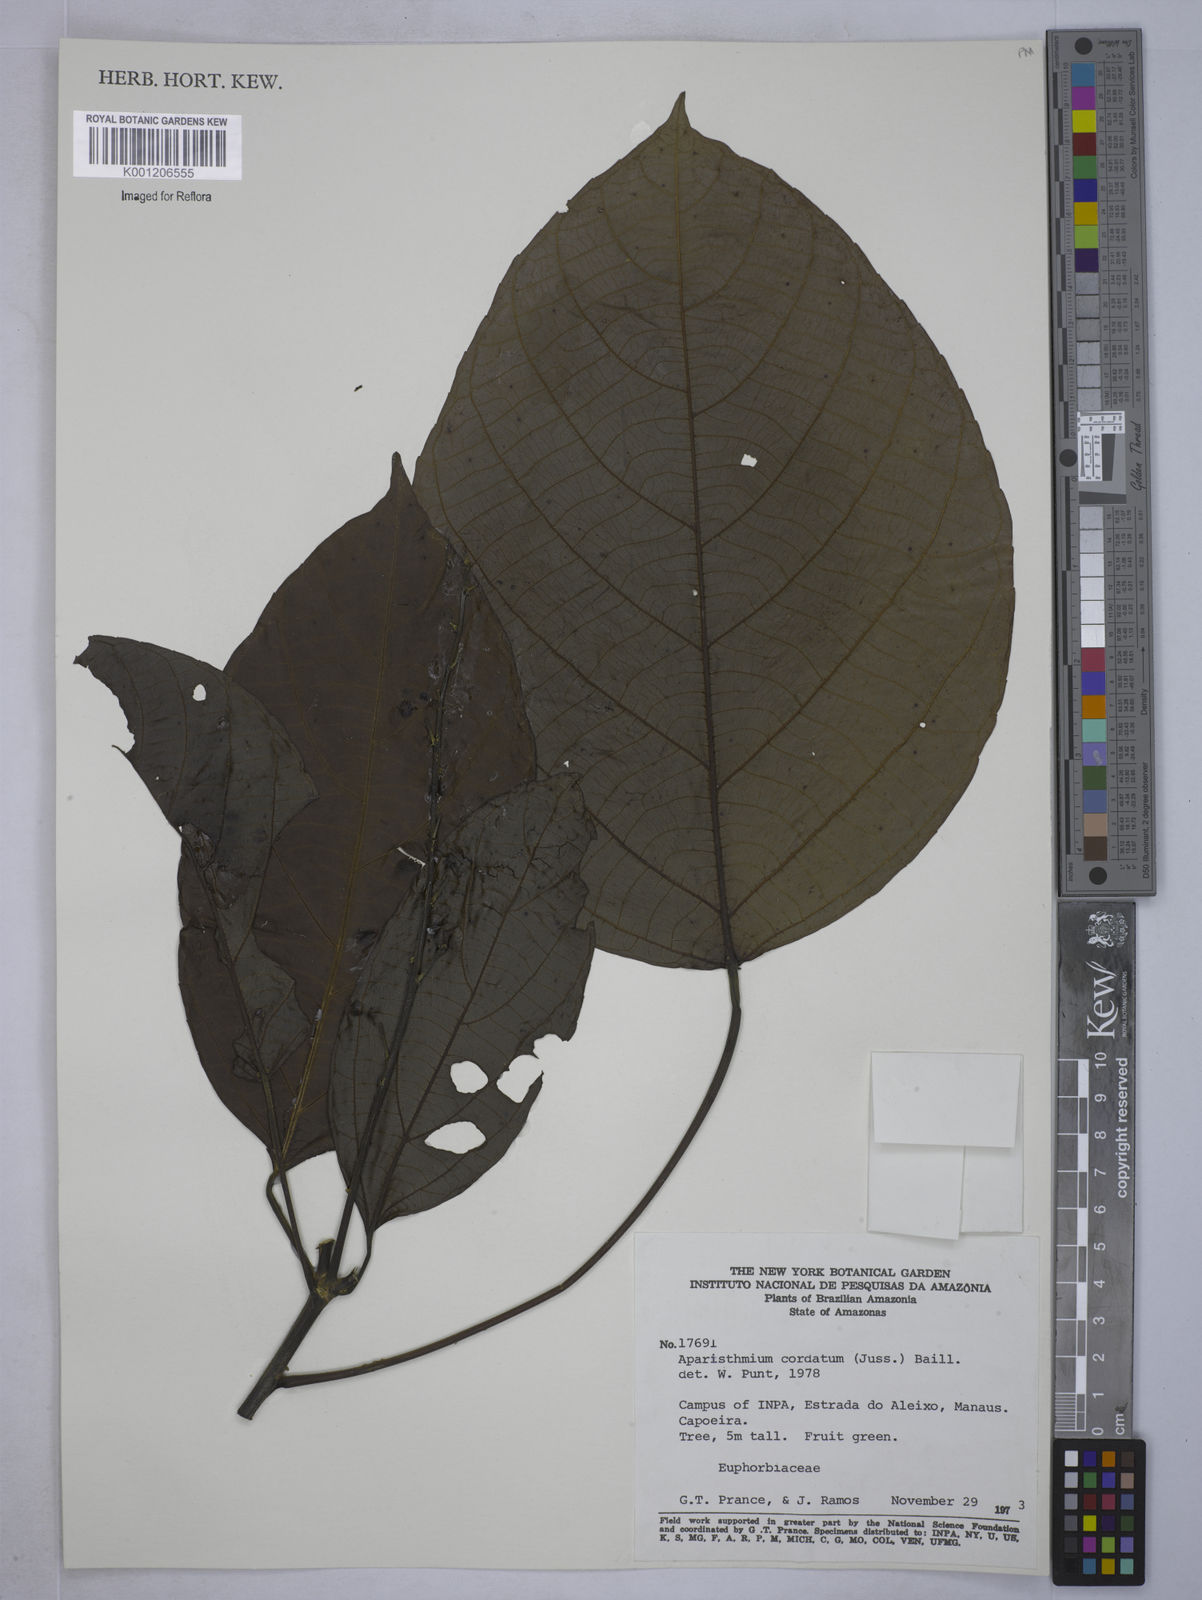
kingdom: Plantae
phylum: Tracheophyta
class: Magnoliopsida
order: Malpighiales
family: Euphorbiaceae
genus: Aparisthmium
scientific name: Aparisthmium cordatum
